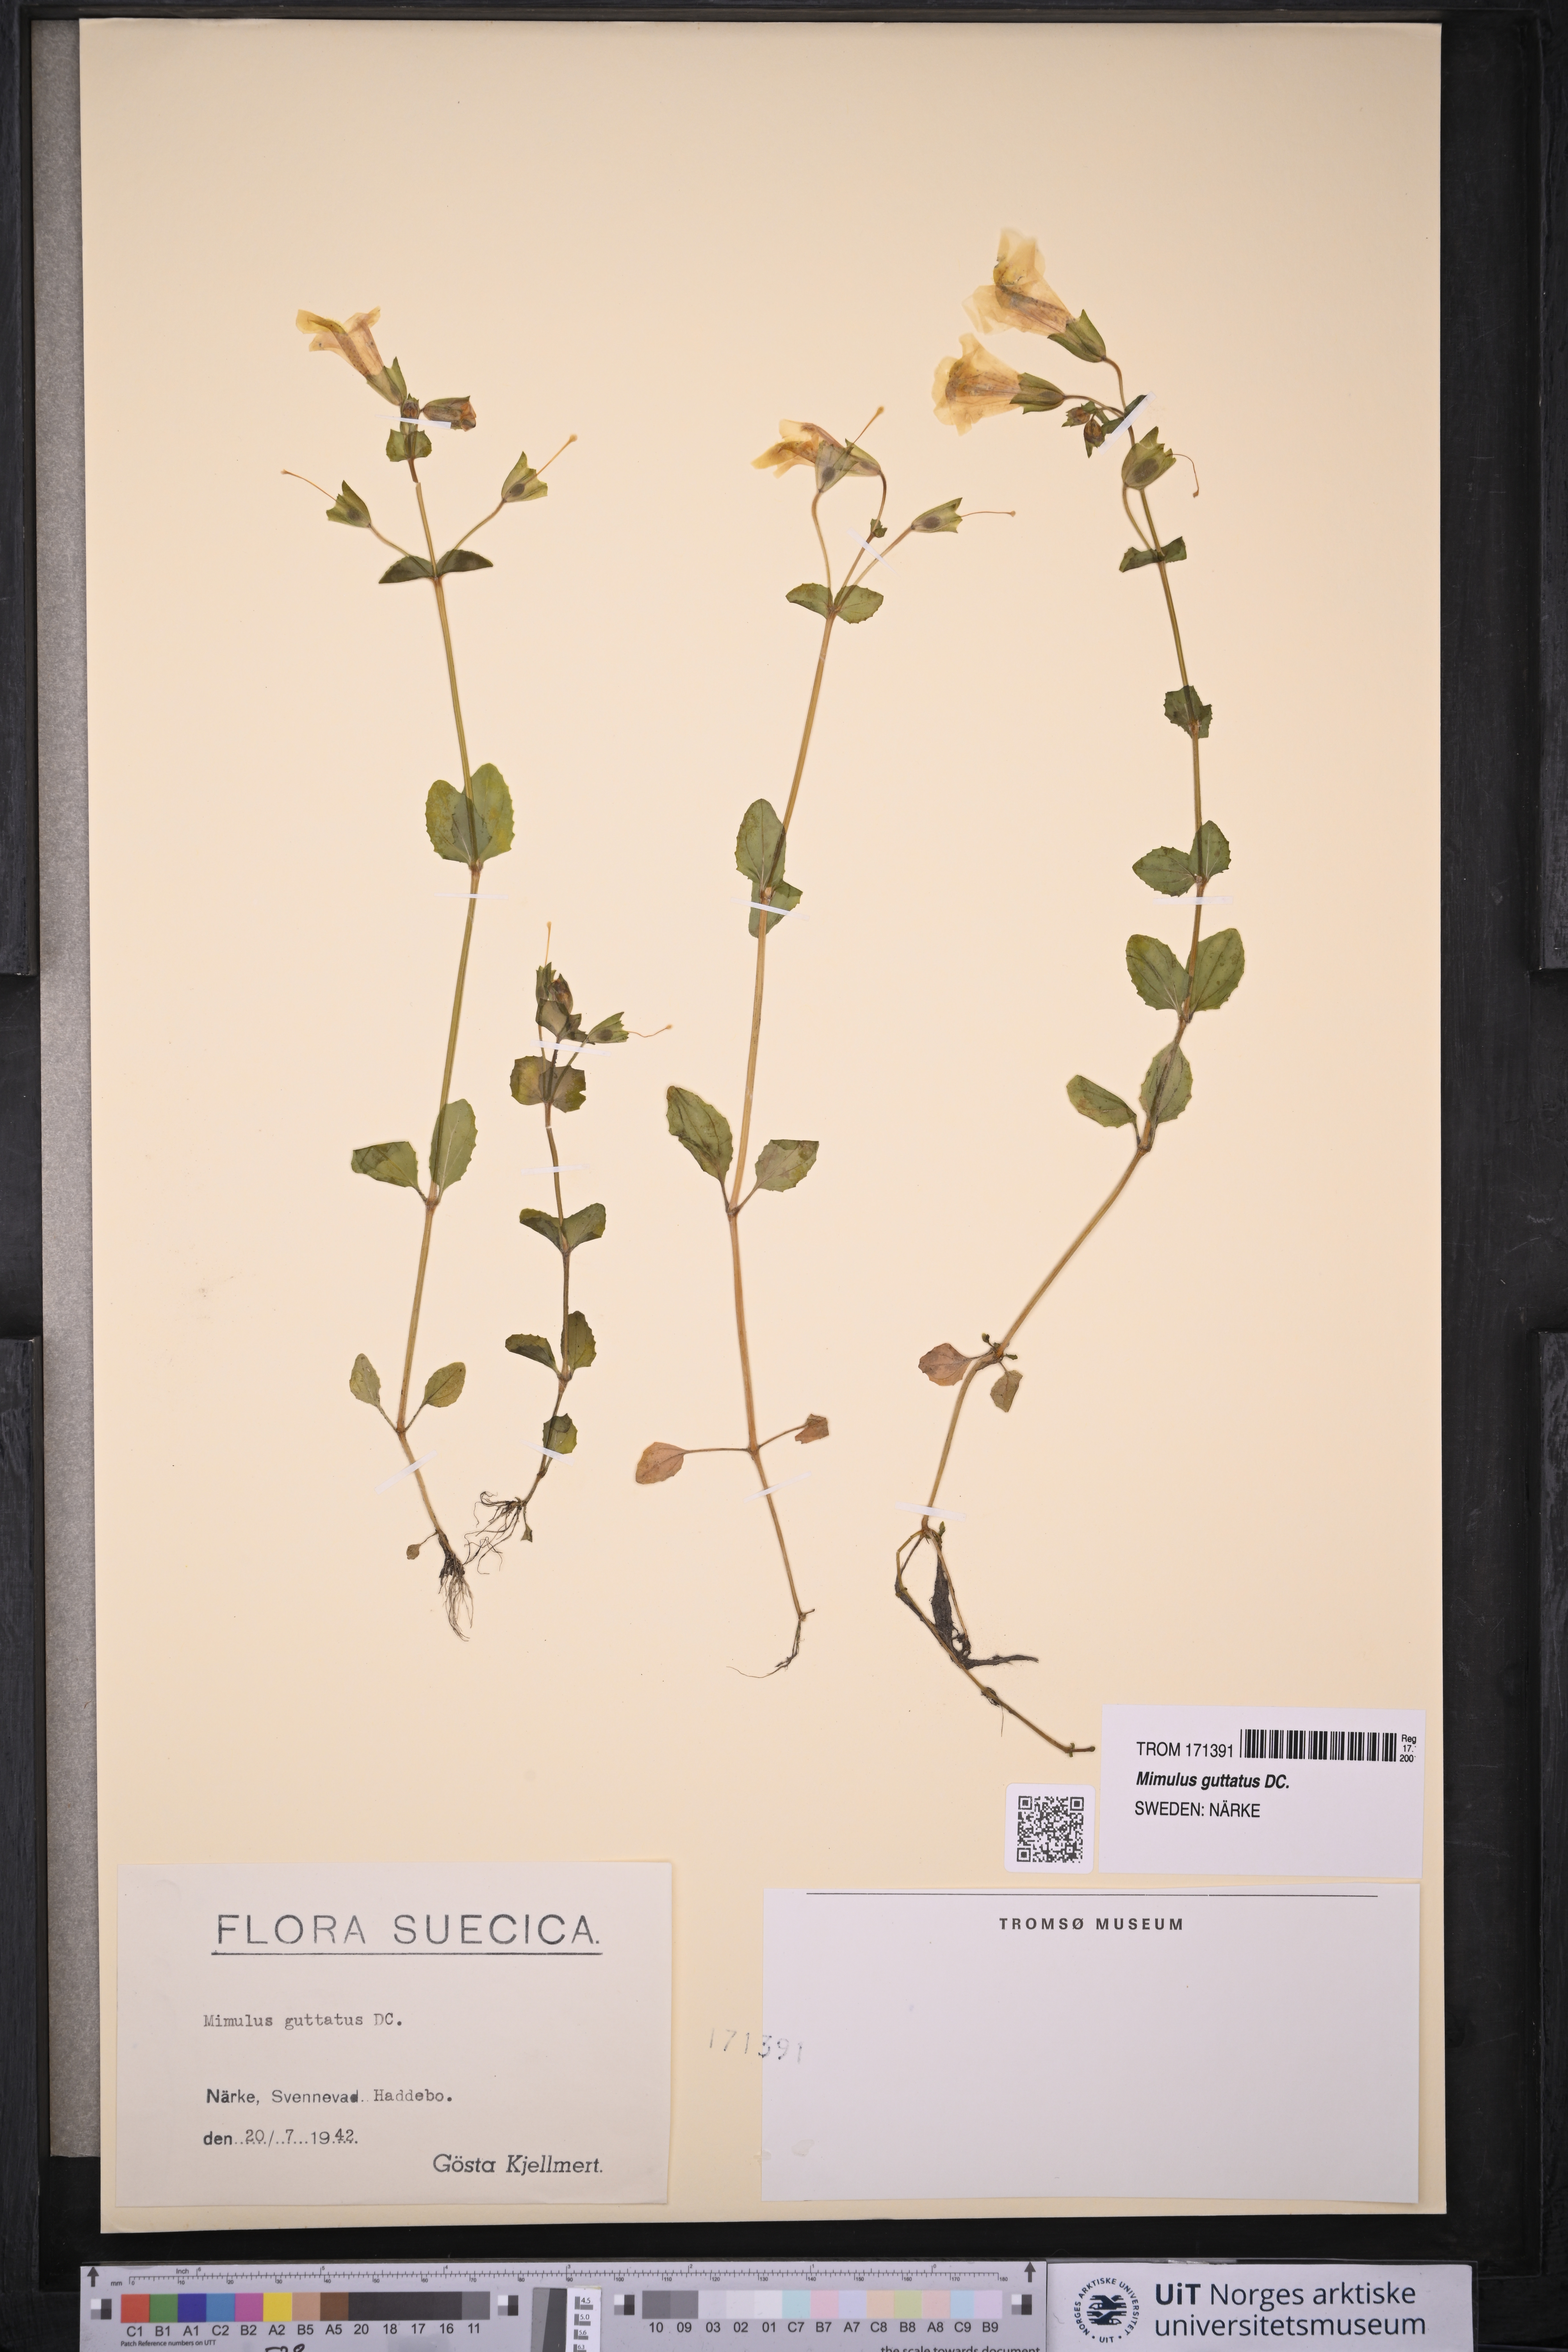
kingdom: Plantae
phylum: Tracheophyta
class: Magnoliopsida
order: Lamiales
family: Phrymaceae
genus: Erythranthe
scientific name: Erythranthe guttata
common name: Monkeyflower
